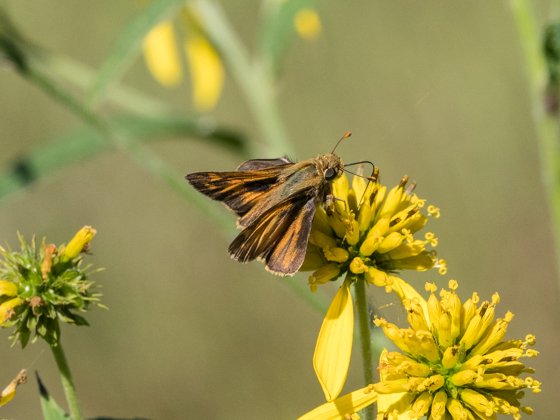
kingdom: Animalia
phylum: Arthropoda
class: Insecta
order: Lepidoptera
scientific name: Lepidoptera
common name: Butterflies
